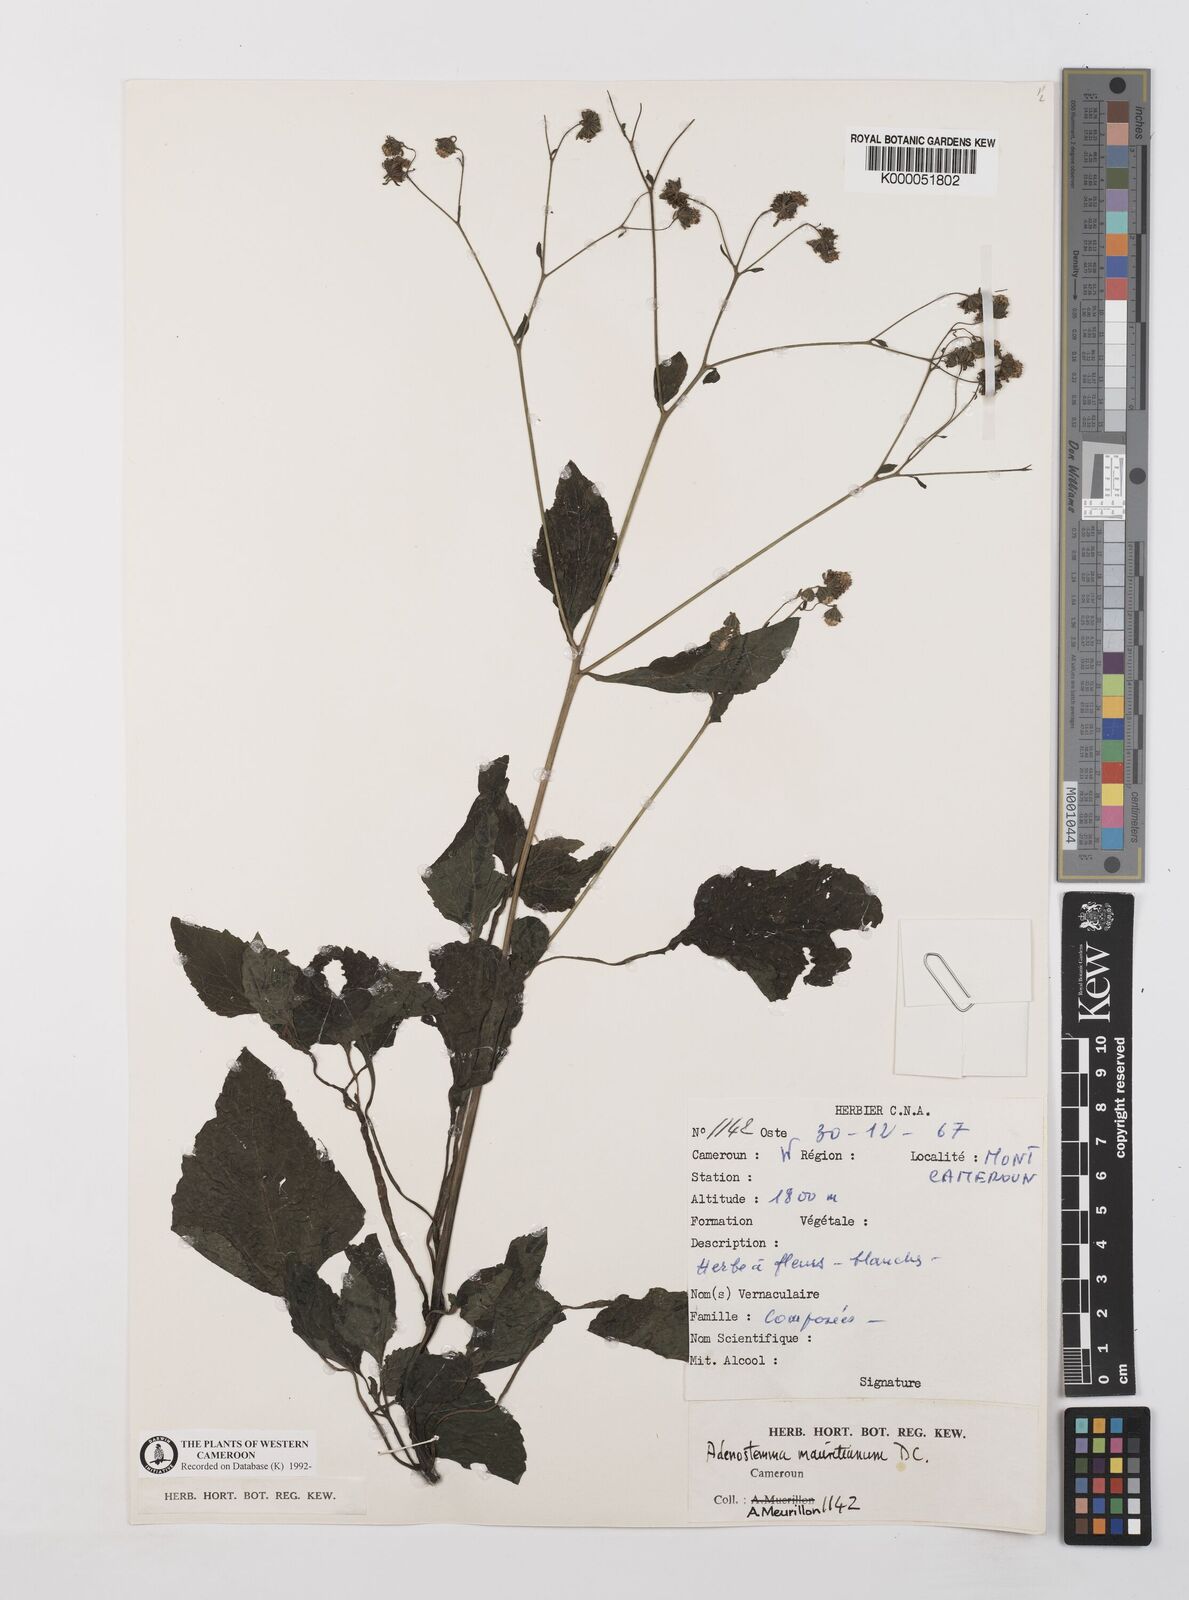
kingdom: Plantae
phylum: Tracheophyta
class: Magnoliopsida
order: Asterales
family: Asteraceae
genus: Adenostemma
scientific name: Adenostemma mauritianum
